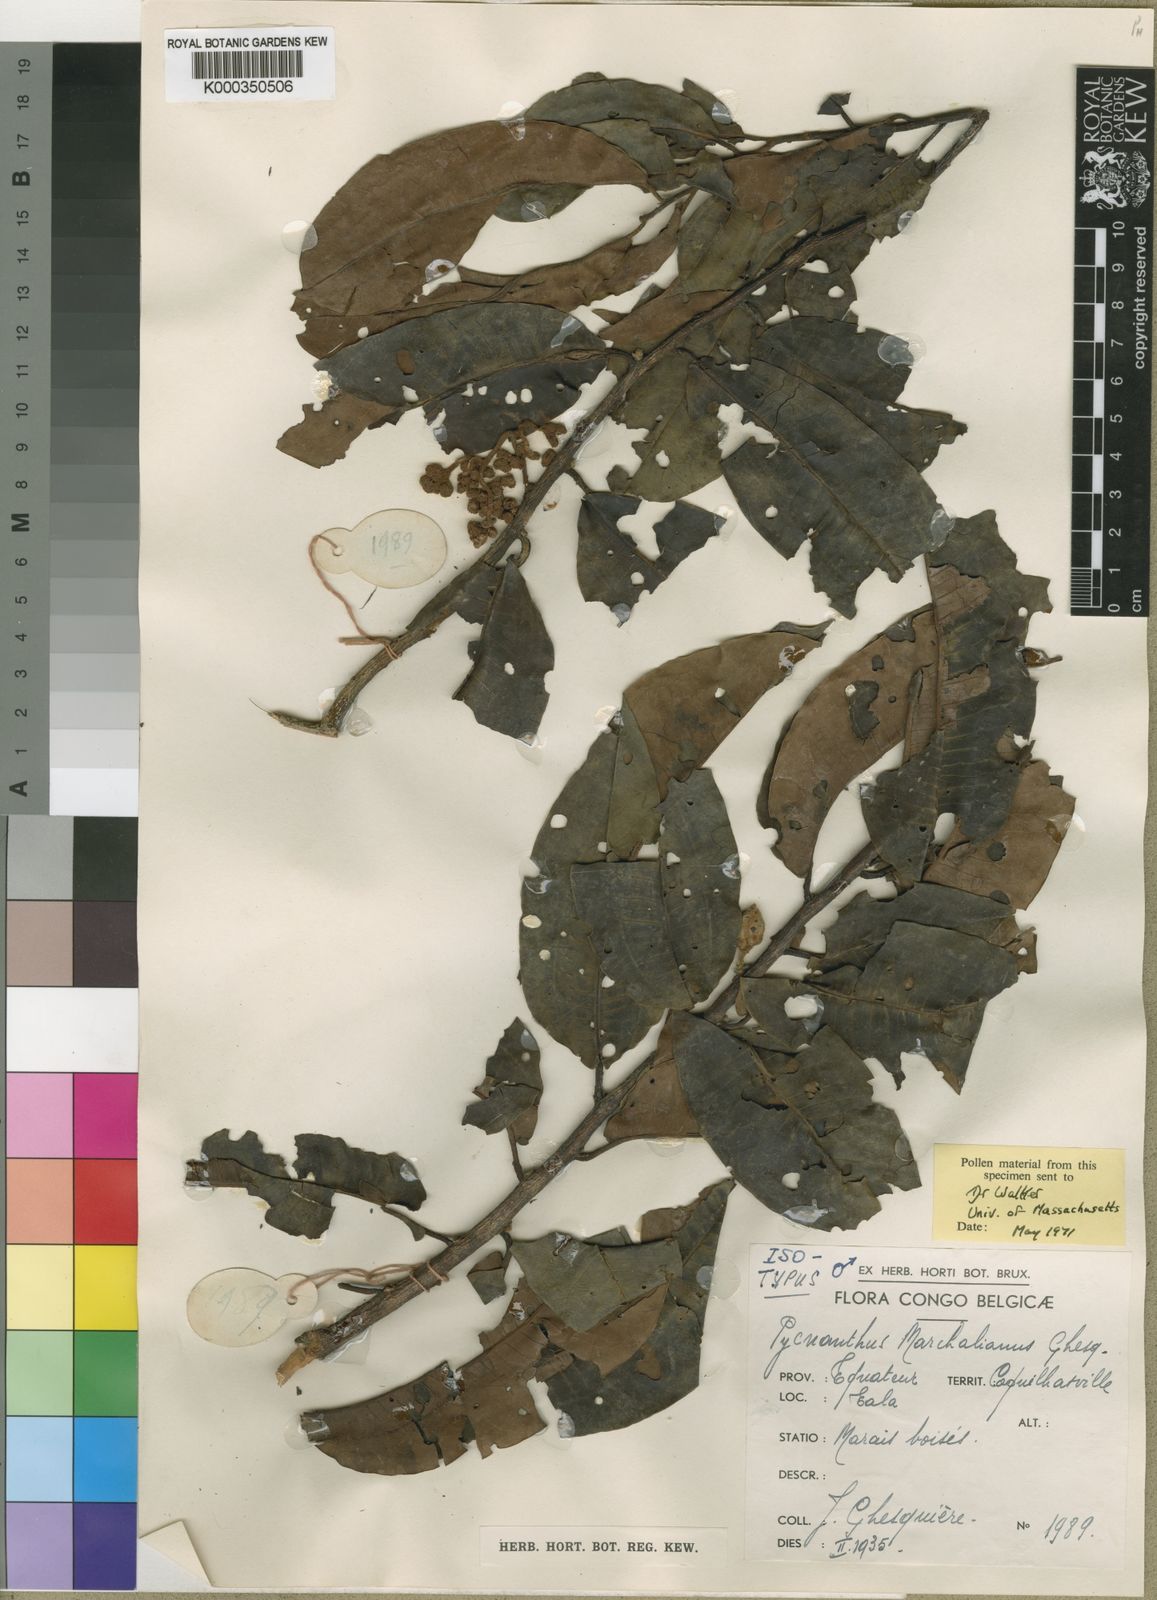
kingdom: Plantae
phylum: Tracheophyta
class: Magnoliopsida
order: Magnoliales
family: Myristicaceae
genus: Pycnanthus
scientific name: Pycnanthus marchalianus
